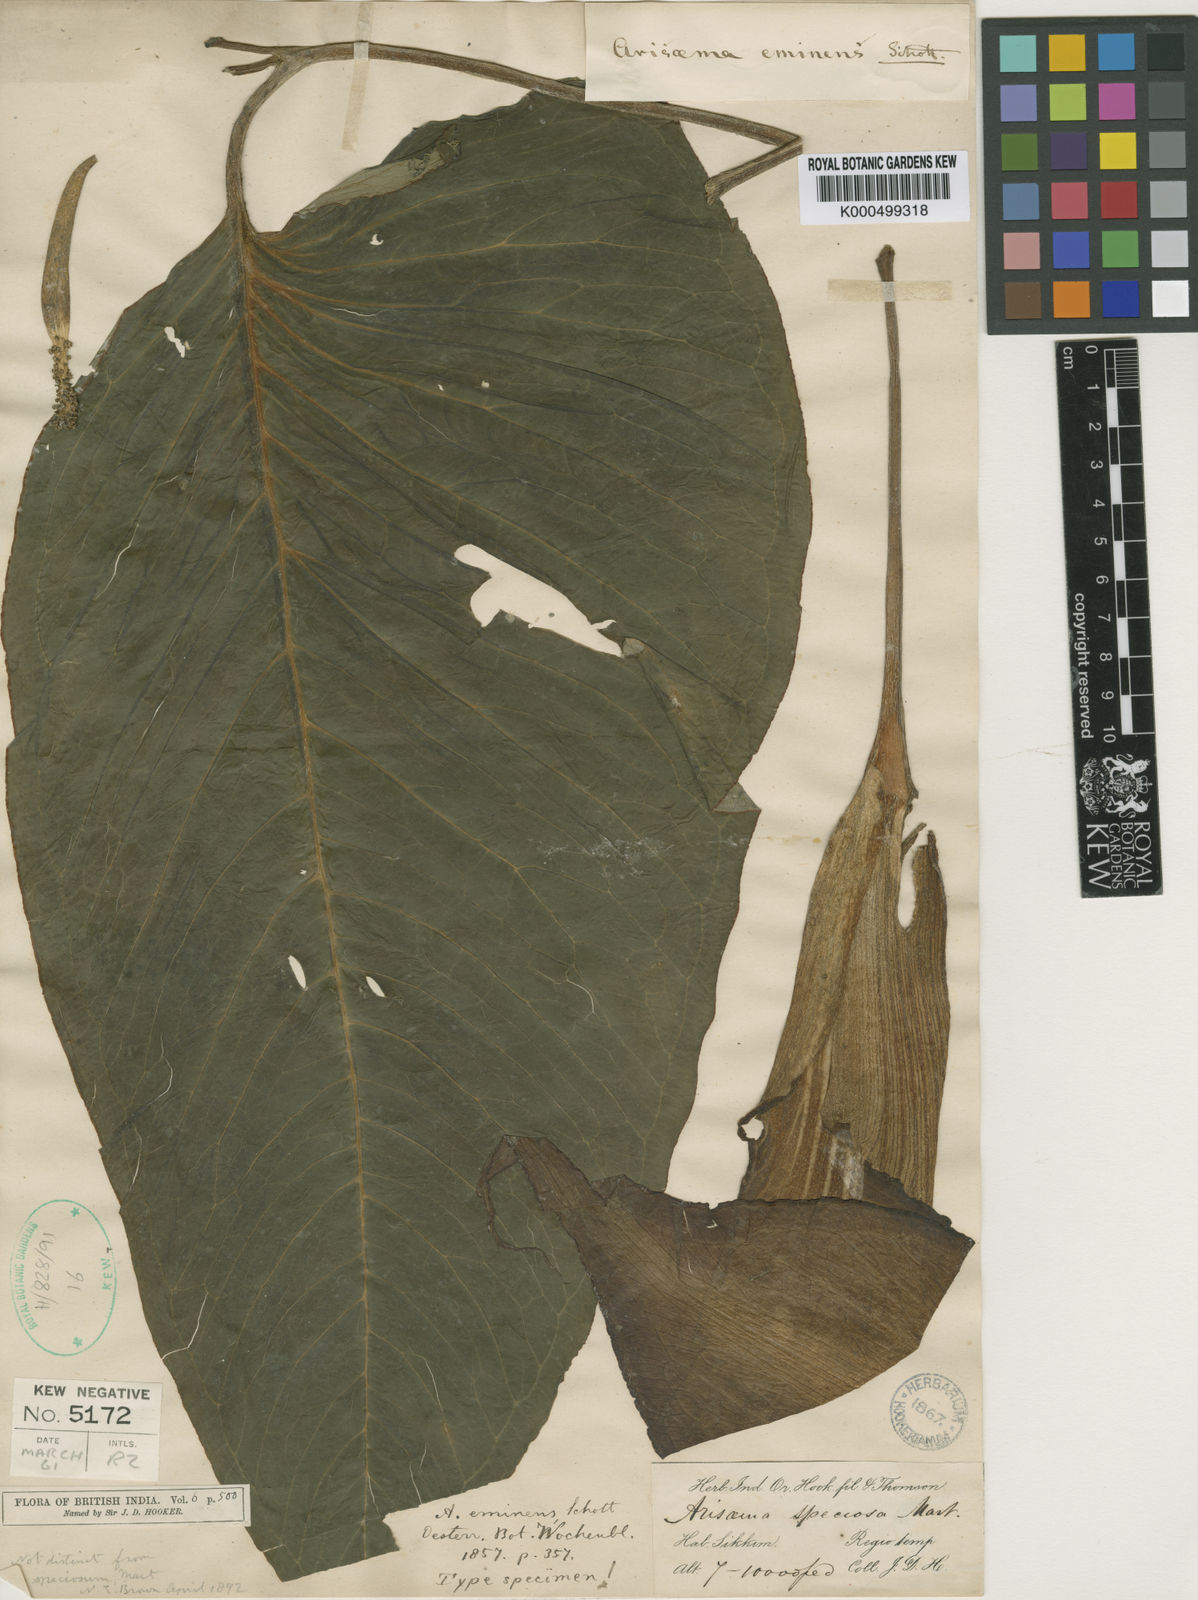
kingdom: Plantae
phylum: Tracheophyta
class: Liliopsida
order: Alismatales
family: Araceae
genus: Arisaema
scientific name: Arisaema speciosum
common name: Showy cobra-lily
